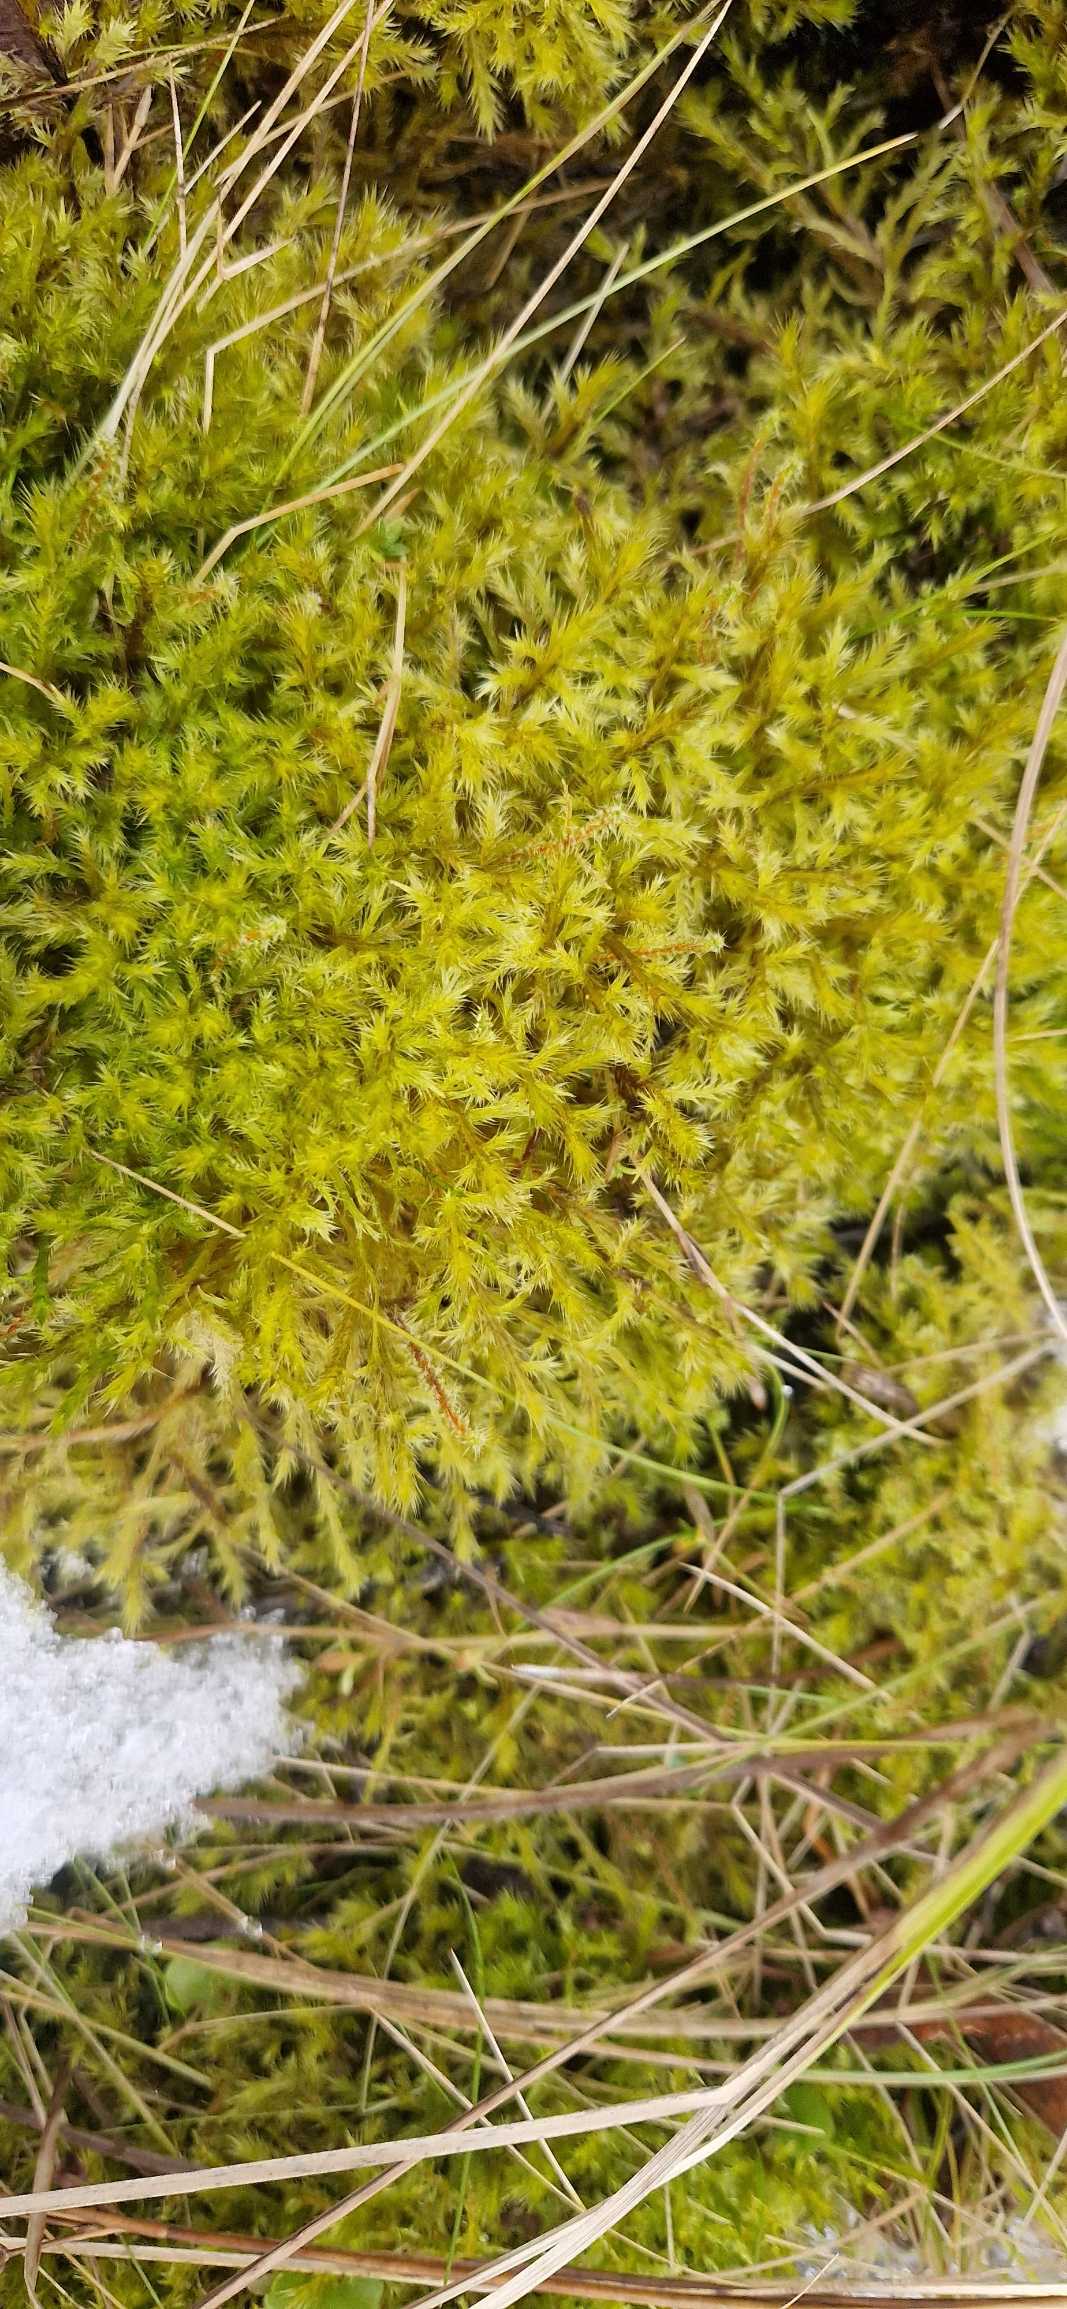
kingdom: Plantae
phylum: Bryophyta
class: Bryopsida
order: Hypnales
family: Amblystegiaceae
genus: Tomentypnum
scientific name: Tomentypnum nitens
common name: Glinsende kærmos
